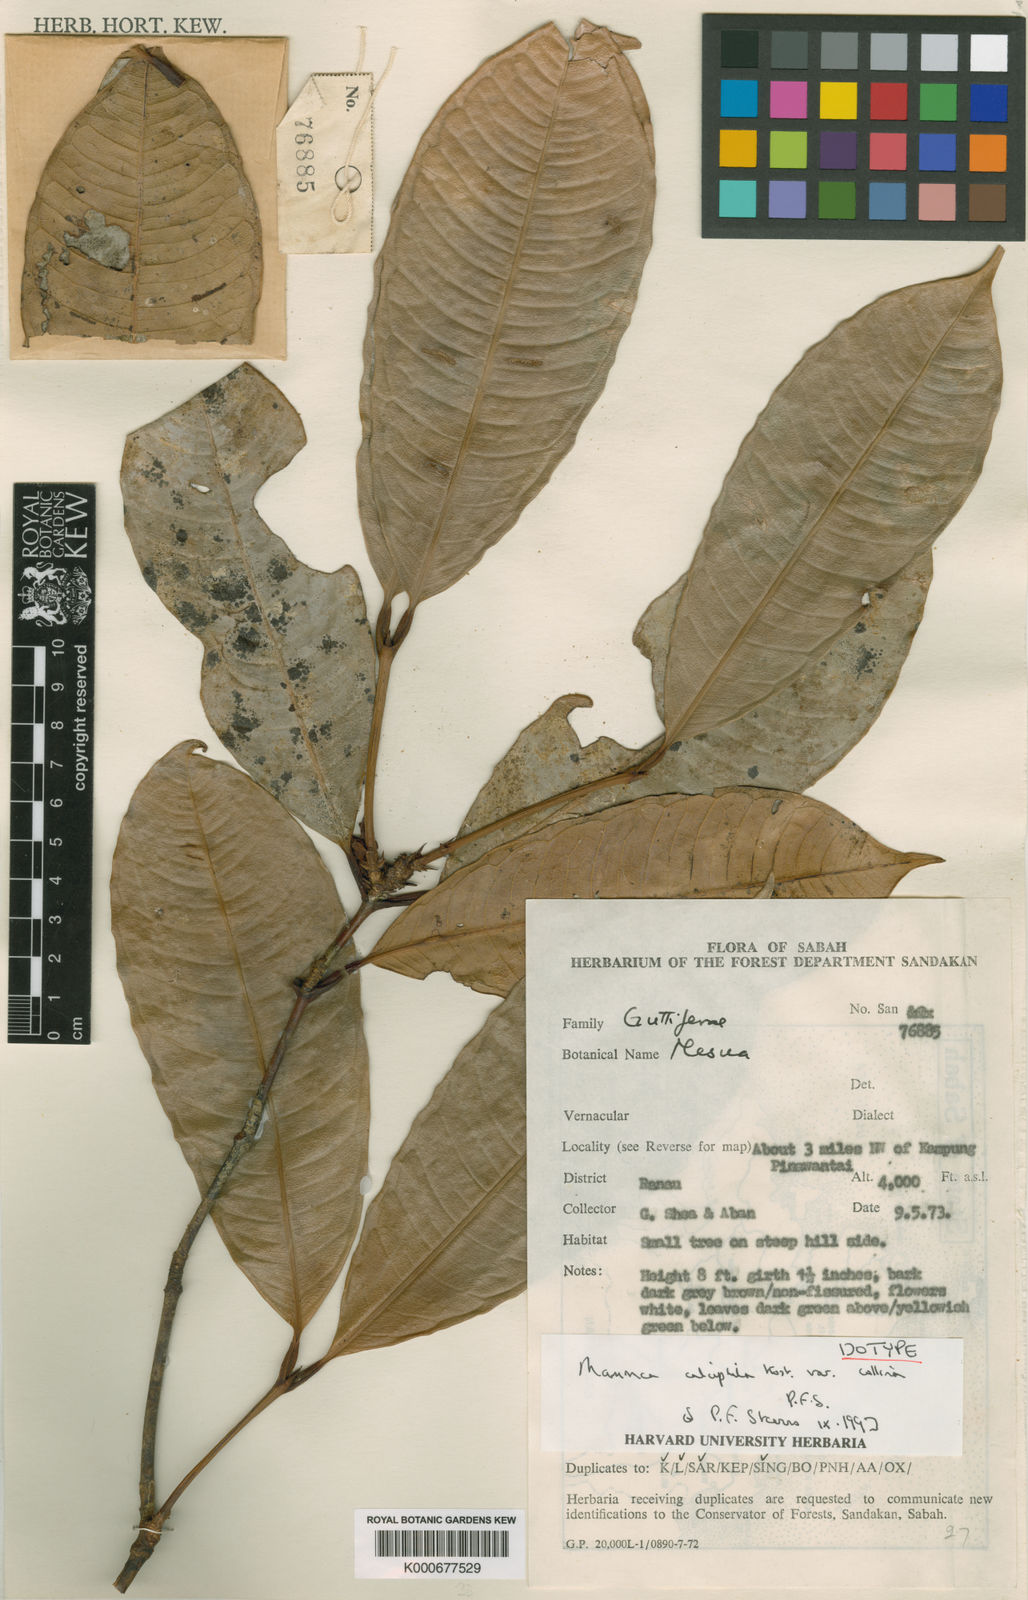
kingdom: Plantae
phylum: Tracheophyta
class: Magnoliopsida
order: Malpighiales
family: Calophyllaceae
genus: Mammea
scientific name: Mammea calciphila
